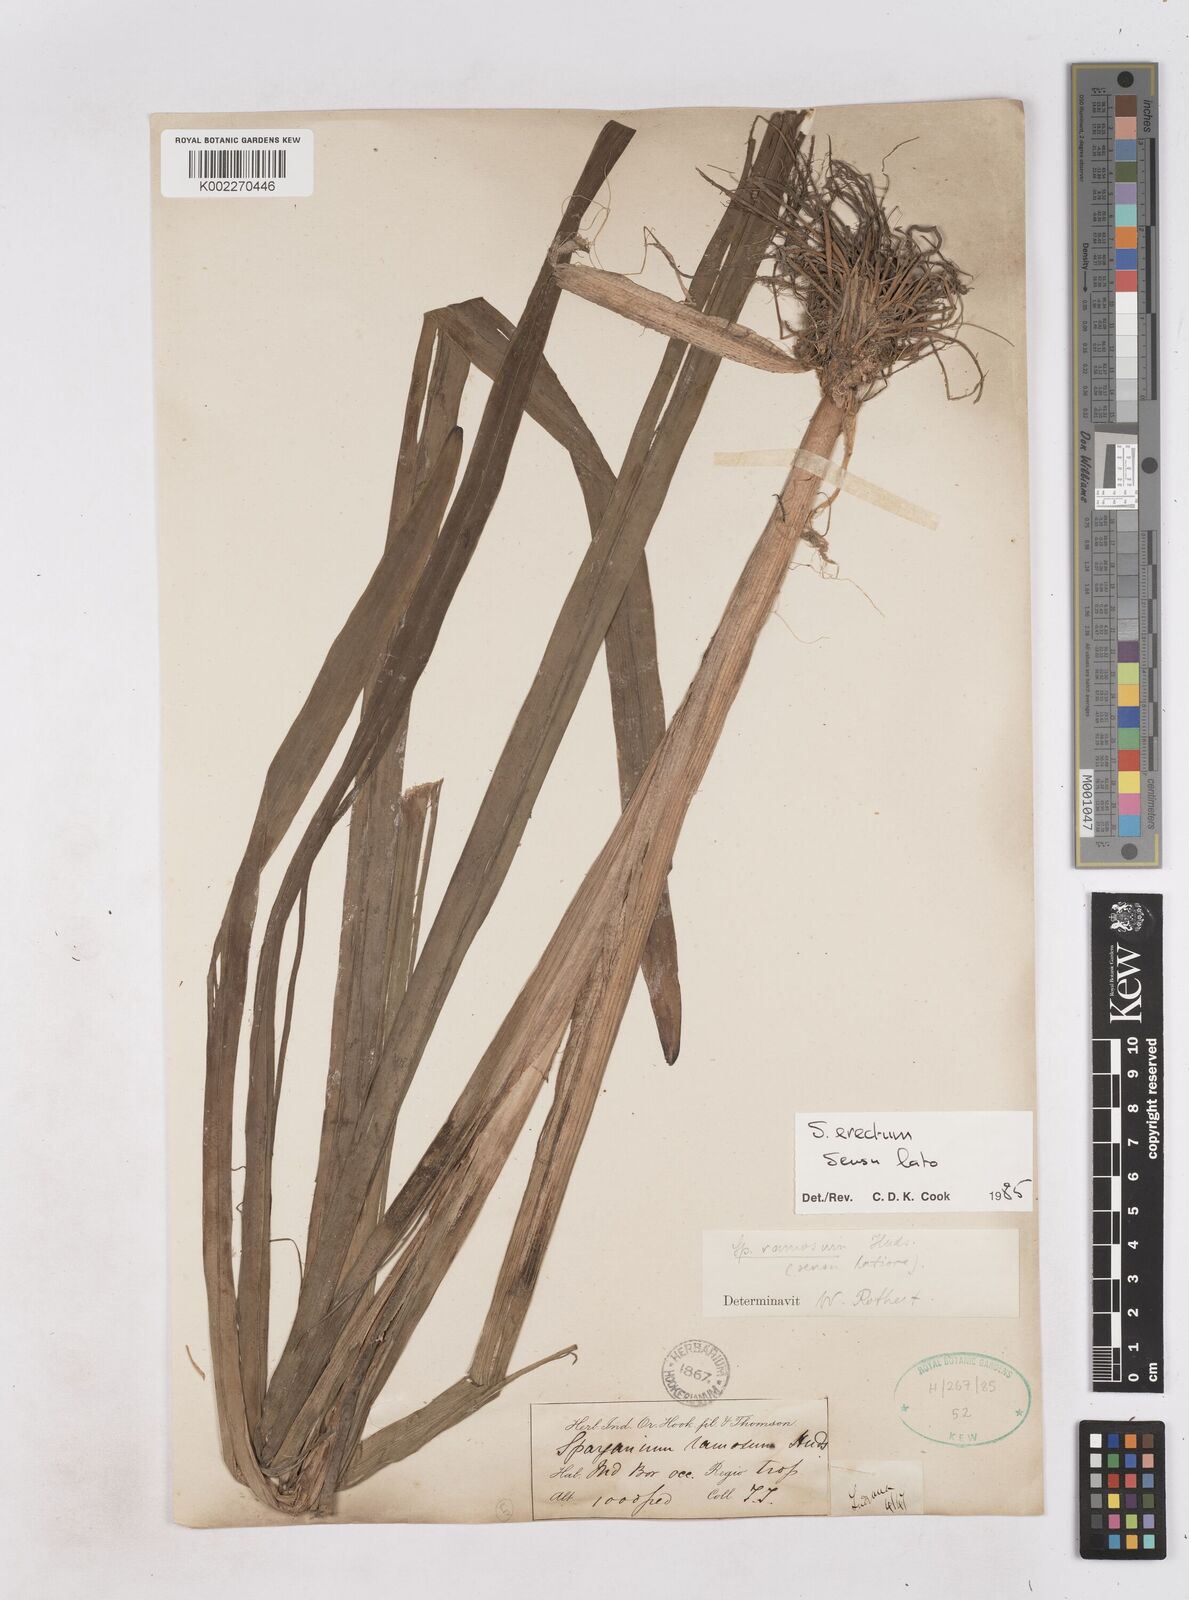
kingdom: Plantae
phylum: Tracheophyta
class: Liliopsida
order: Poales
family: Typhaceae
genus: Sparganium
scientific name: Sparganium erectum
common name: Branched bur-reed
